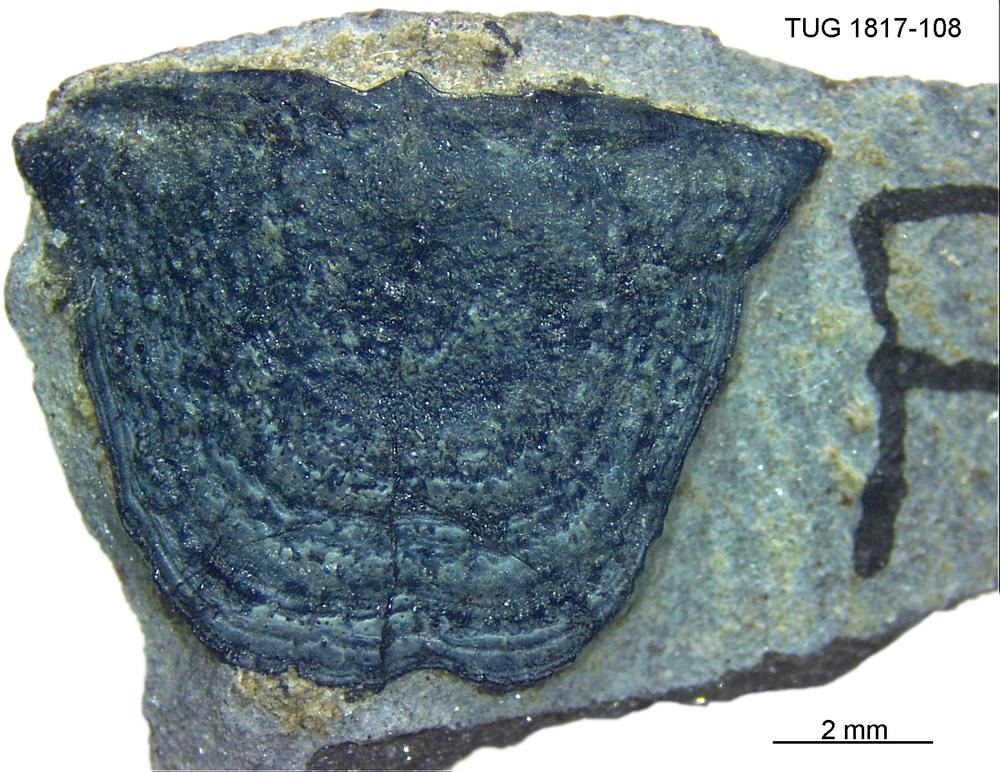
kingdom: Animalia
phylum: Chordata
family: Coccosteidae
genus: Millerosteus
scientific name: Millerosteus minor
